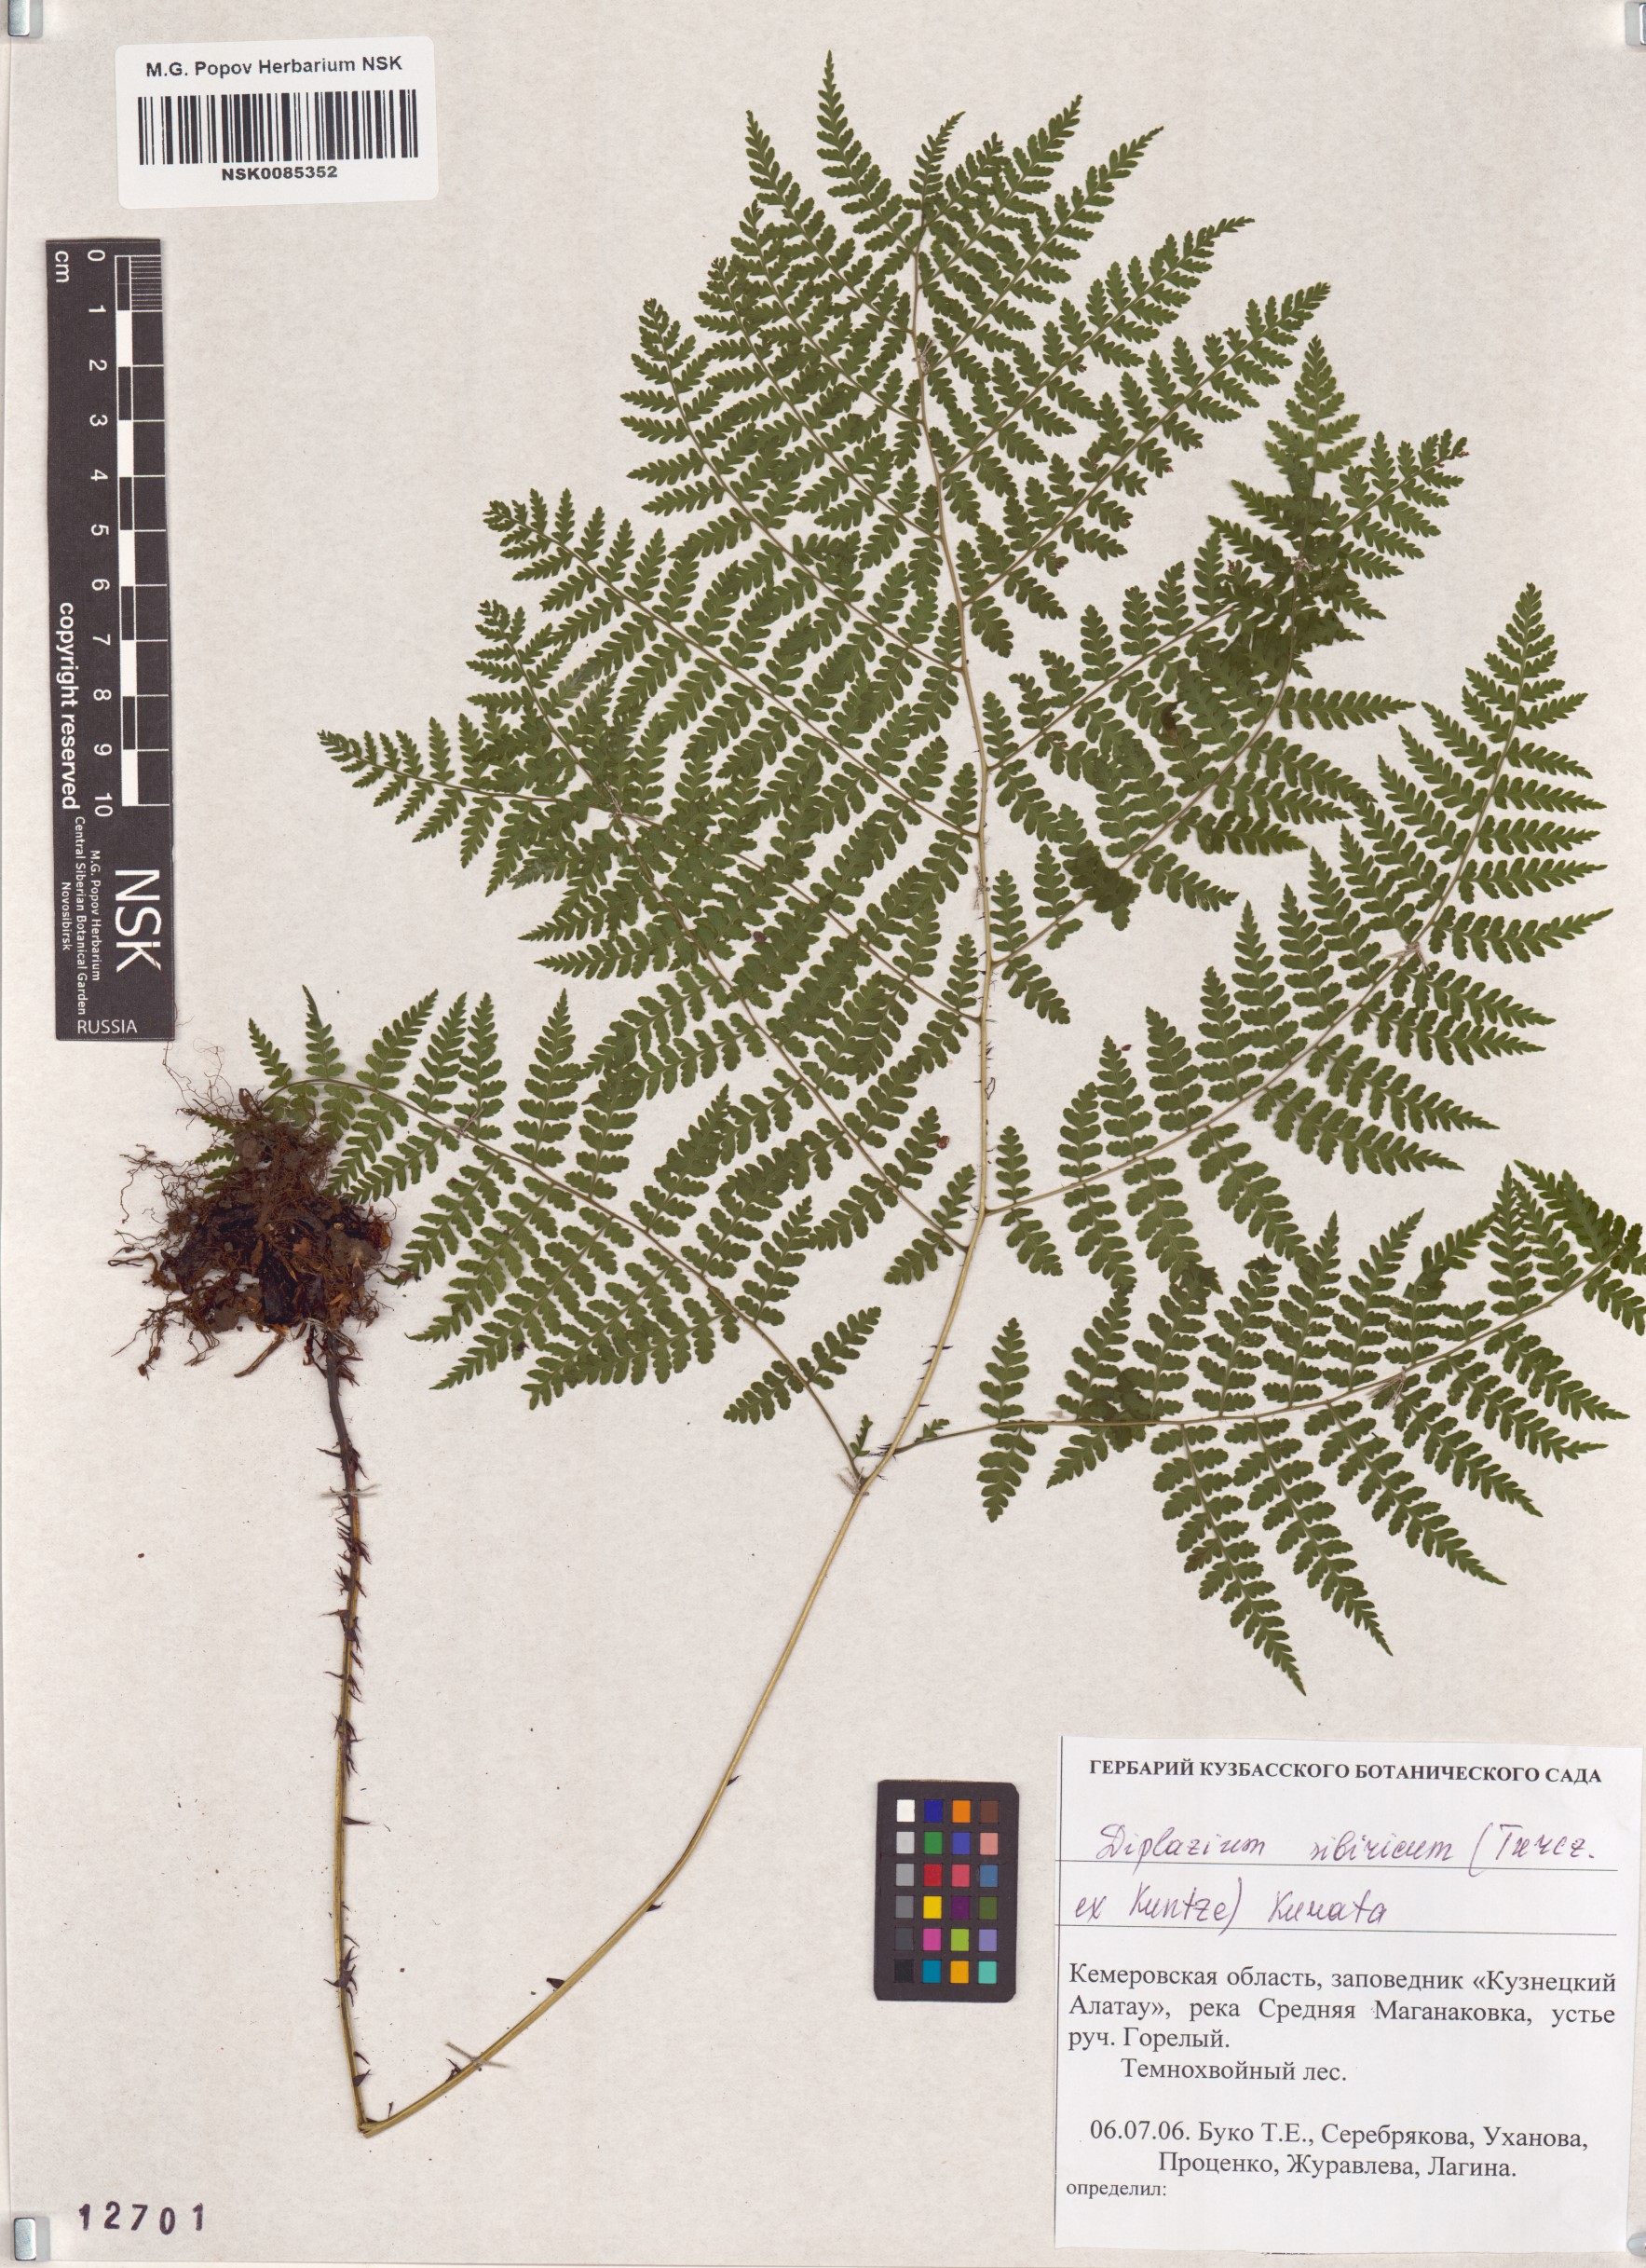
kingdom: Plantae
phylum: Tracheophyta
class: Polypodiopsida
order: Polypodiales
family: Athyriaceae
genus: Diplazium
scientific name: Diplazium sibiricum
